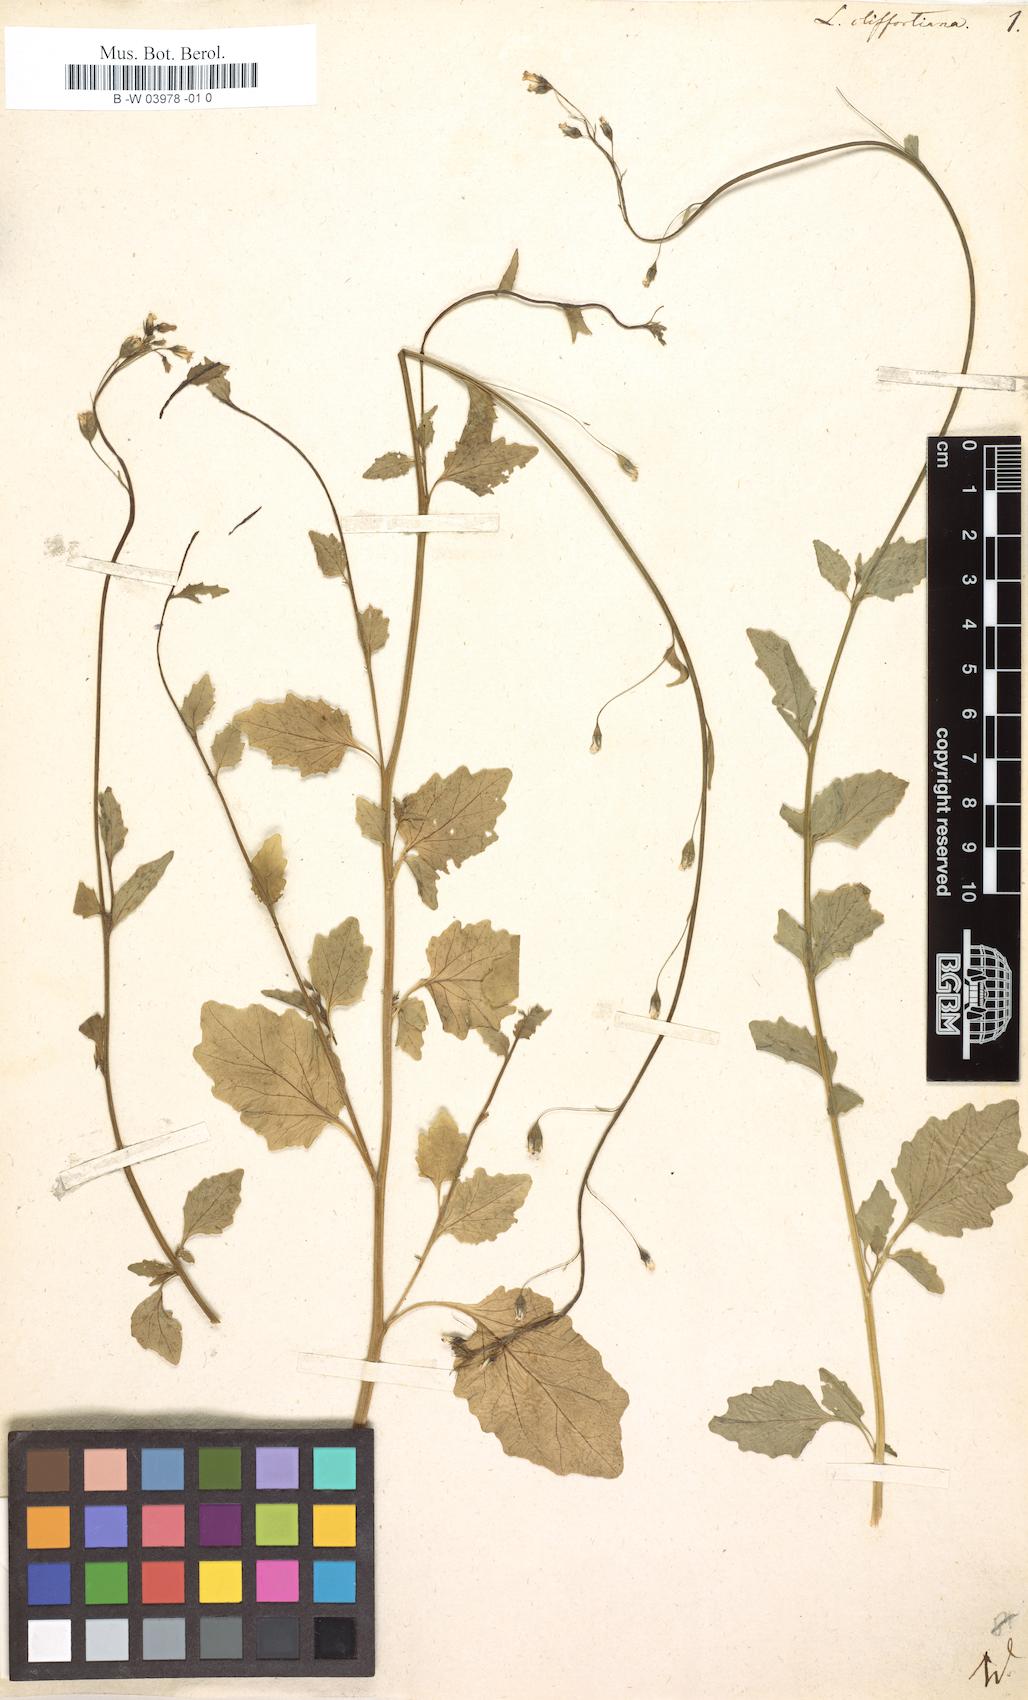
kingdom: Plantae
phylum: Tracheophyta
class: Magnoliopsida
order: Asterales
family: Campanulaceae
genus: Lobelia
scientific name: Lobelia cliffortiana
